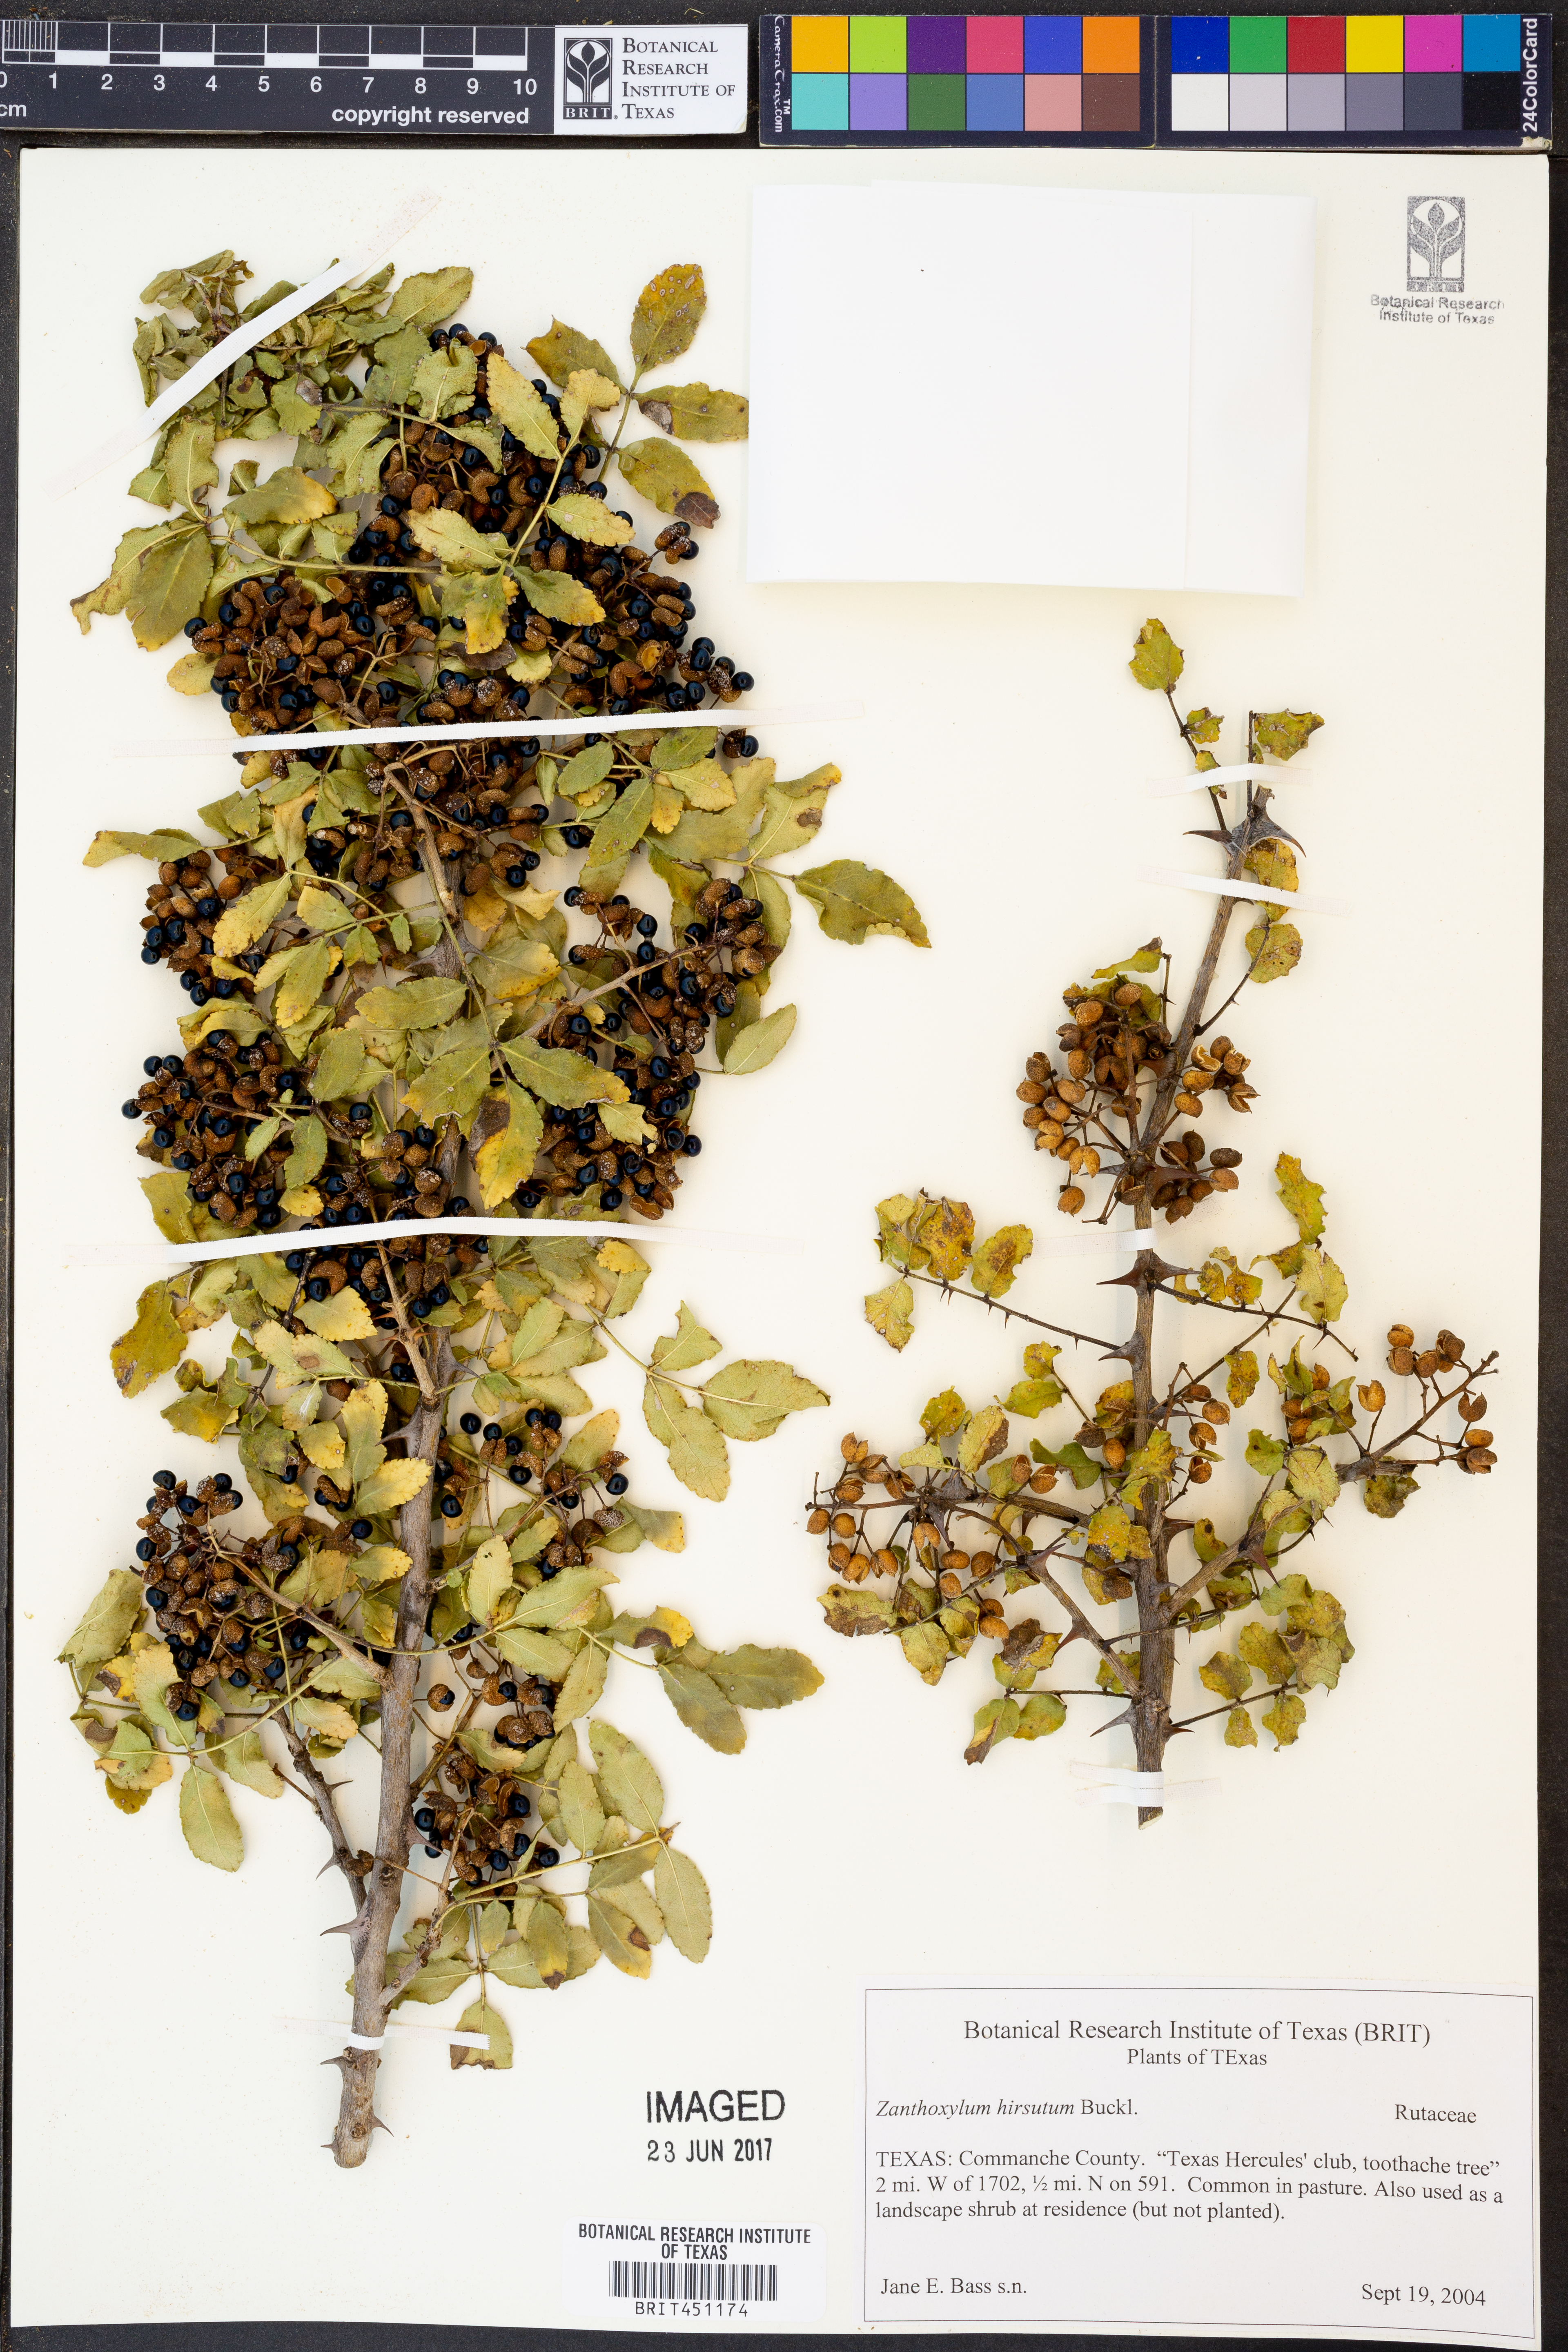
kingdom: Plantae
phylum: Tracheophyta
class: Magnoliopsida
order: Sapindales
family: Rutaceae
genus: Zanthoxylum
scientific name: Zanthoxylum clava-herculis
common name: Hercules'-club
